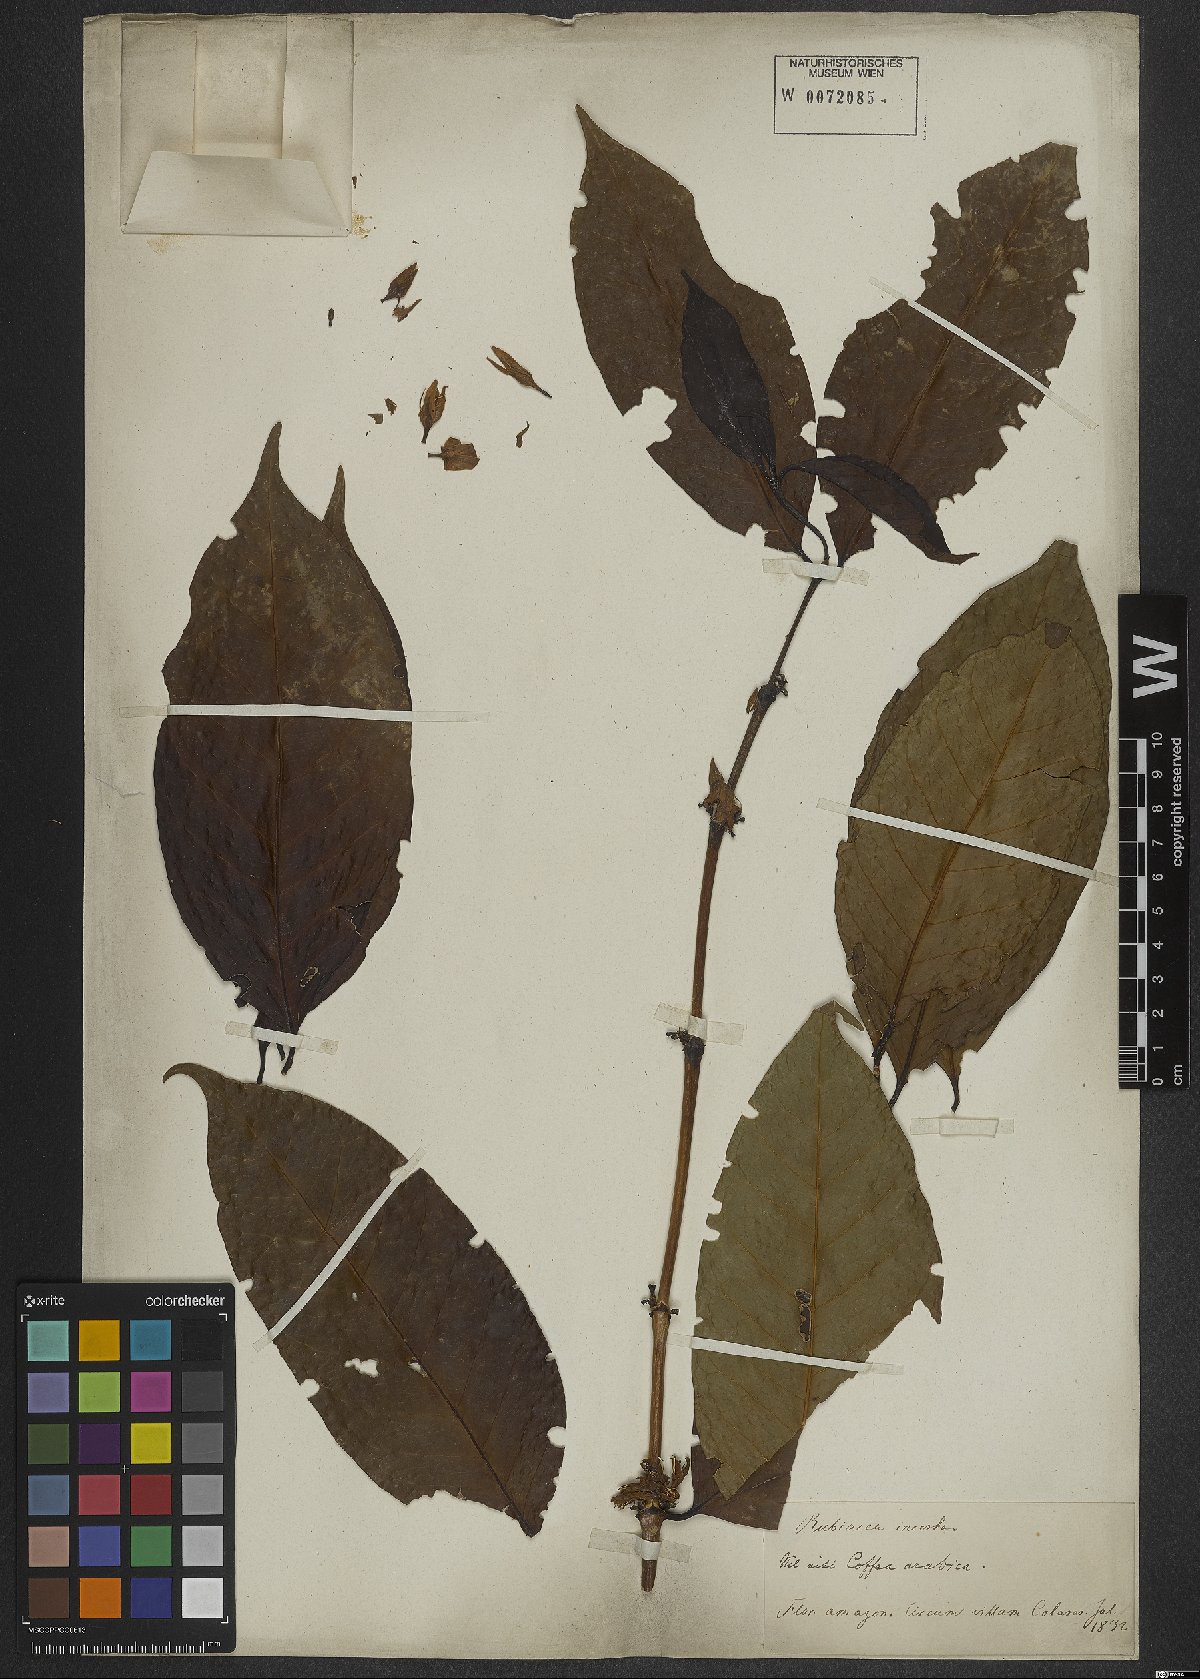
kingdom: Plantae
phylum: Tracheophyta
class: Magnoliopsida
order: Gentianales
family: Rubiaceae
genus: Coffea
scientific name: Coffea arabica
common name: Coffee
